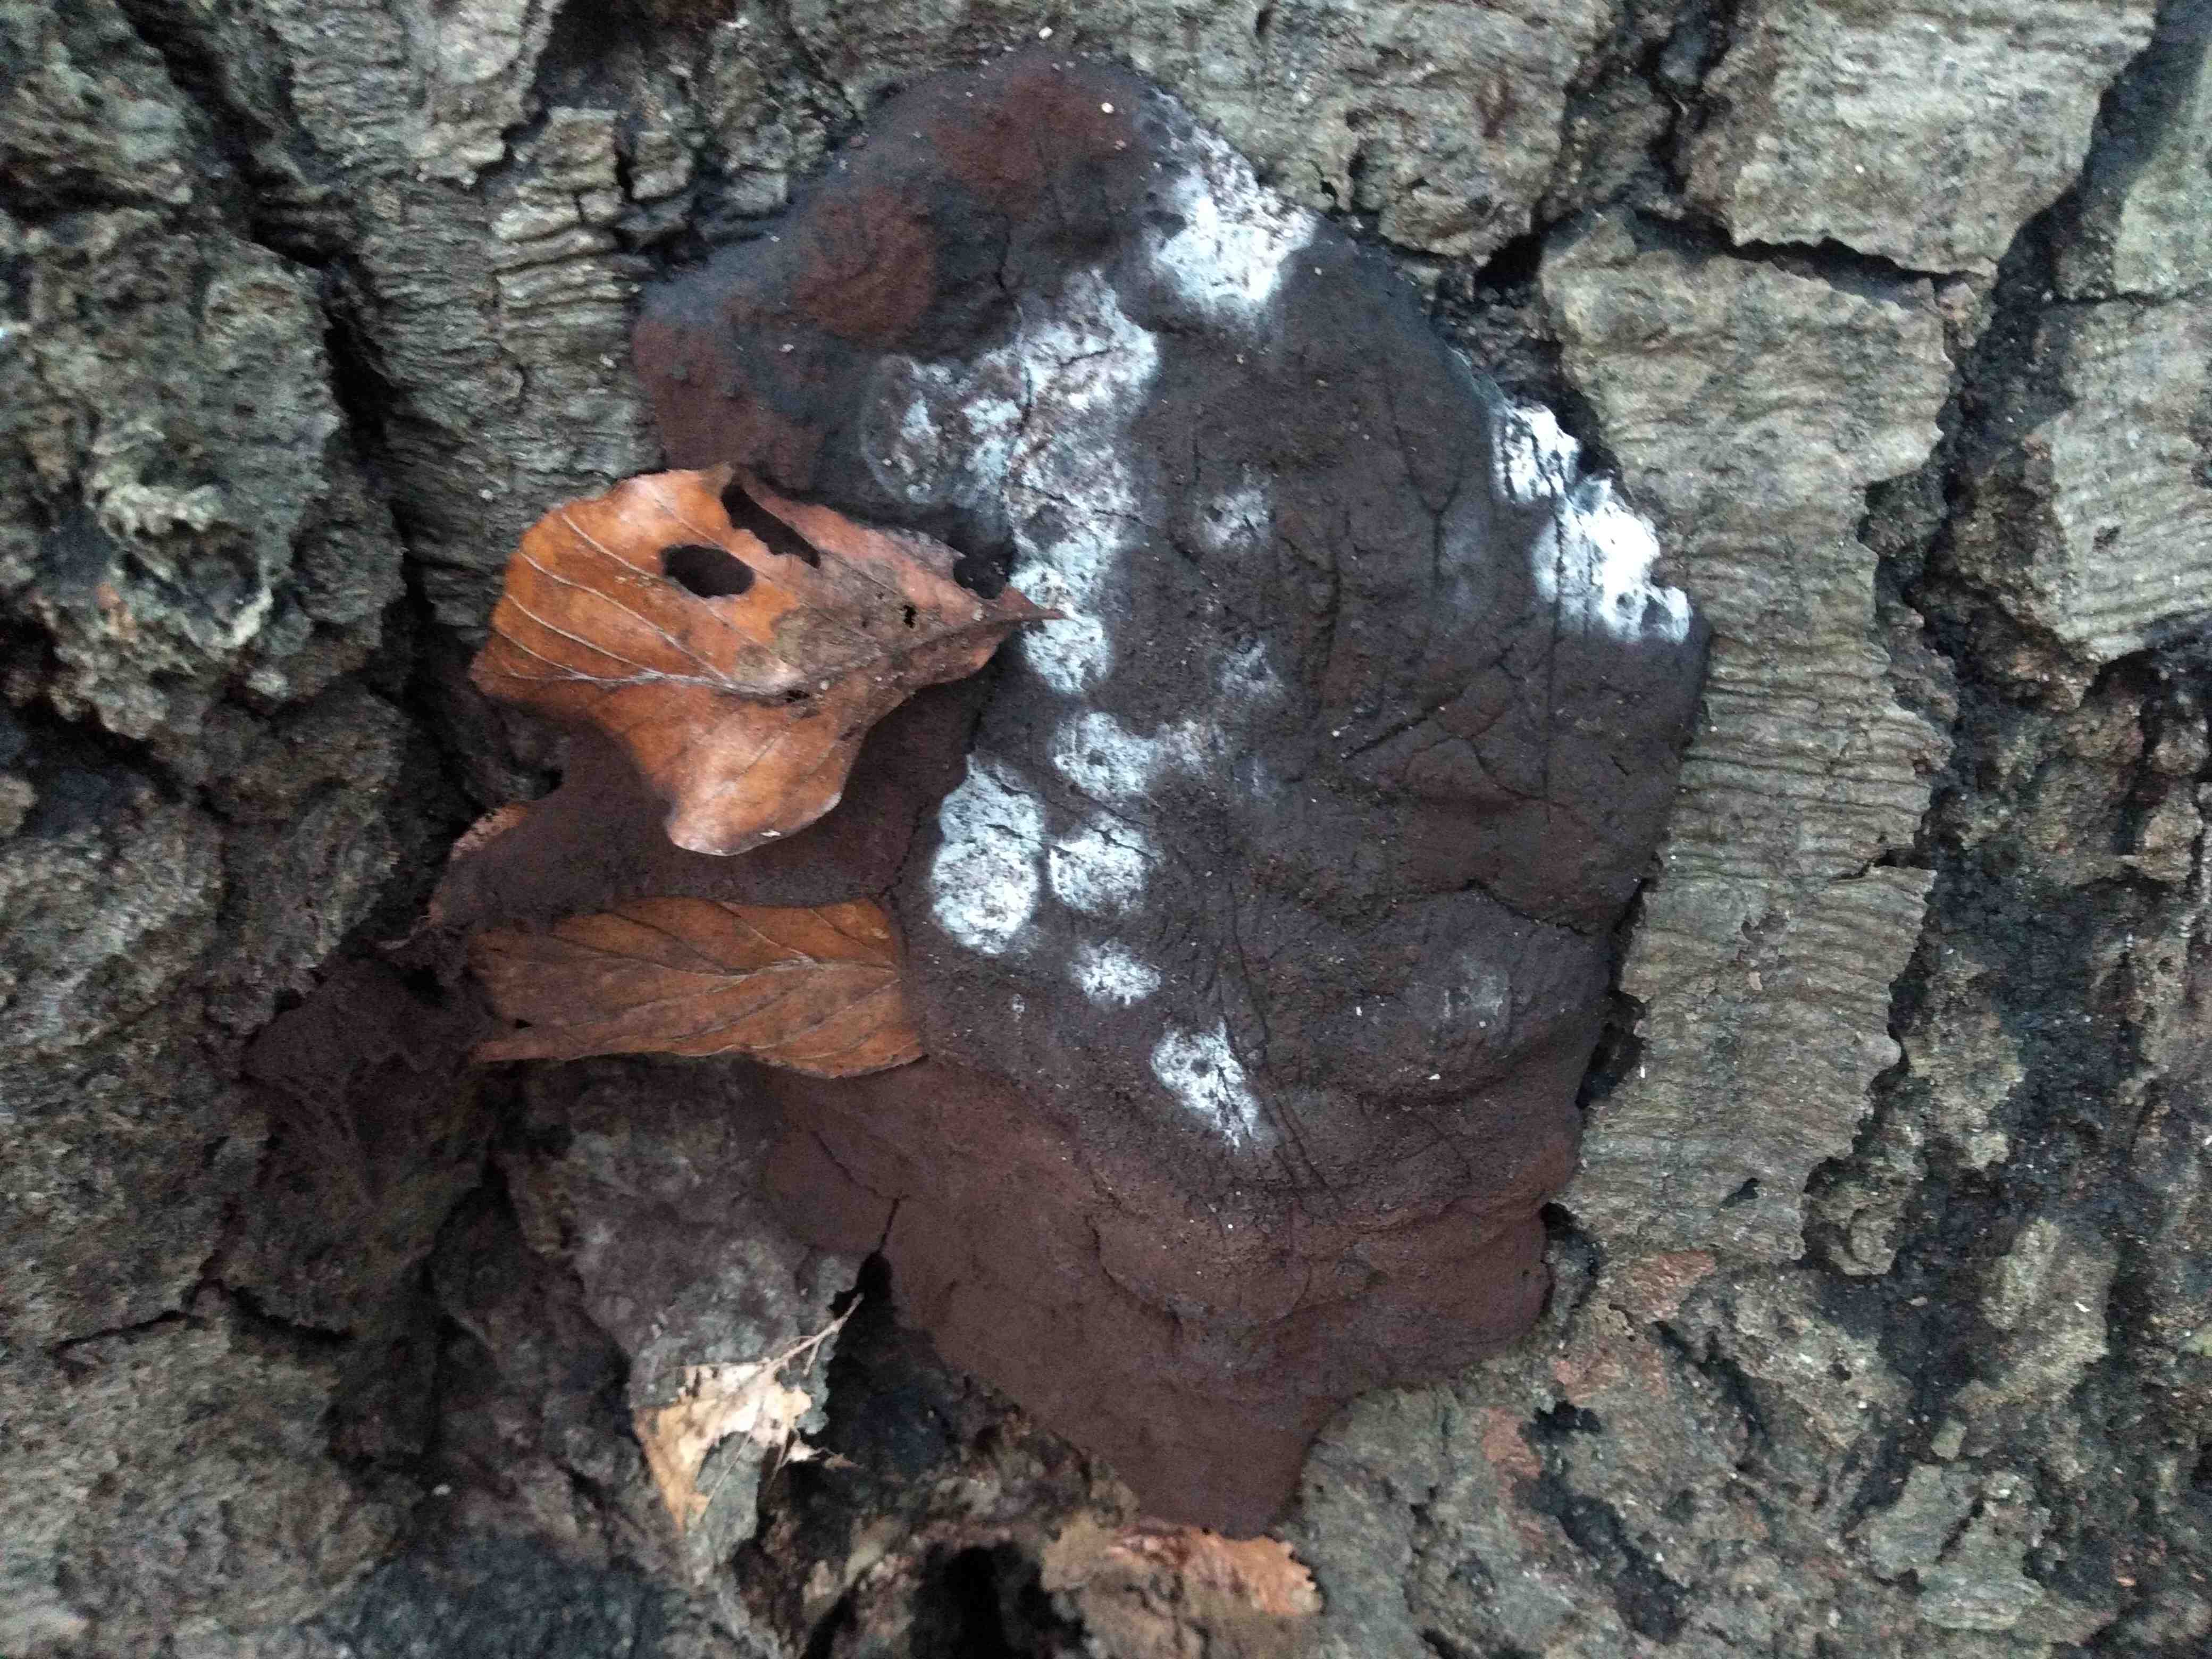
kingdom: Protozoa
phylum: Mycetozoa
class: Myxomycetes
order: Stemonitidales
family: Stemonitidaceae
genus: Brefeldia
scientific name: Brefeldia maxima
